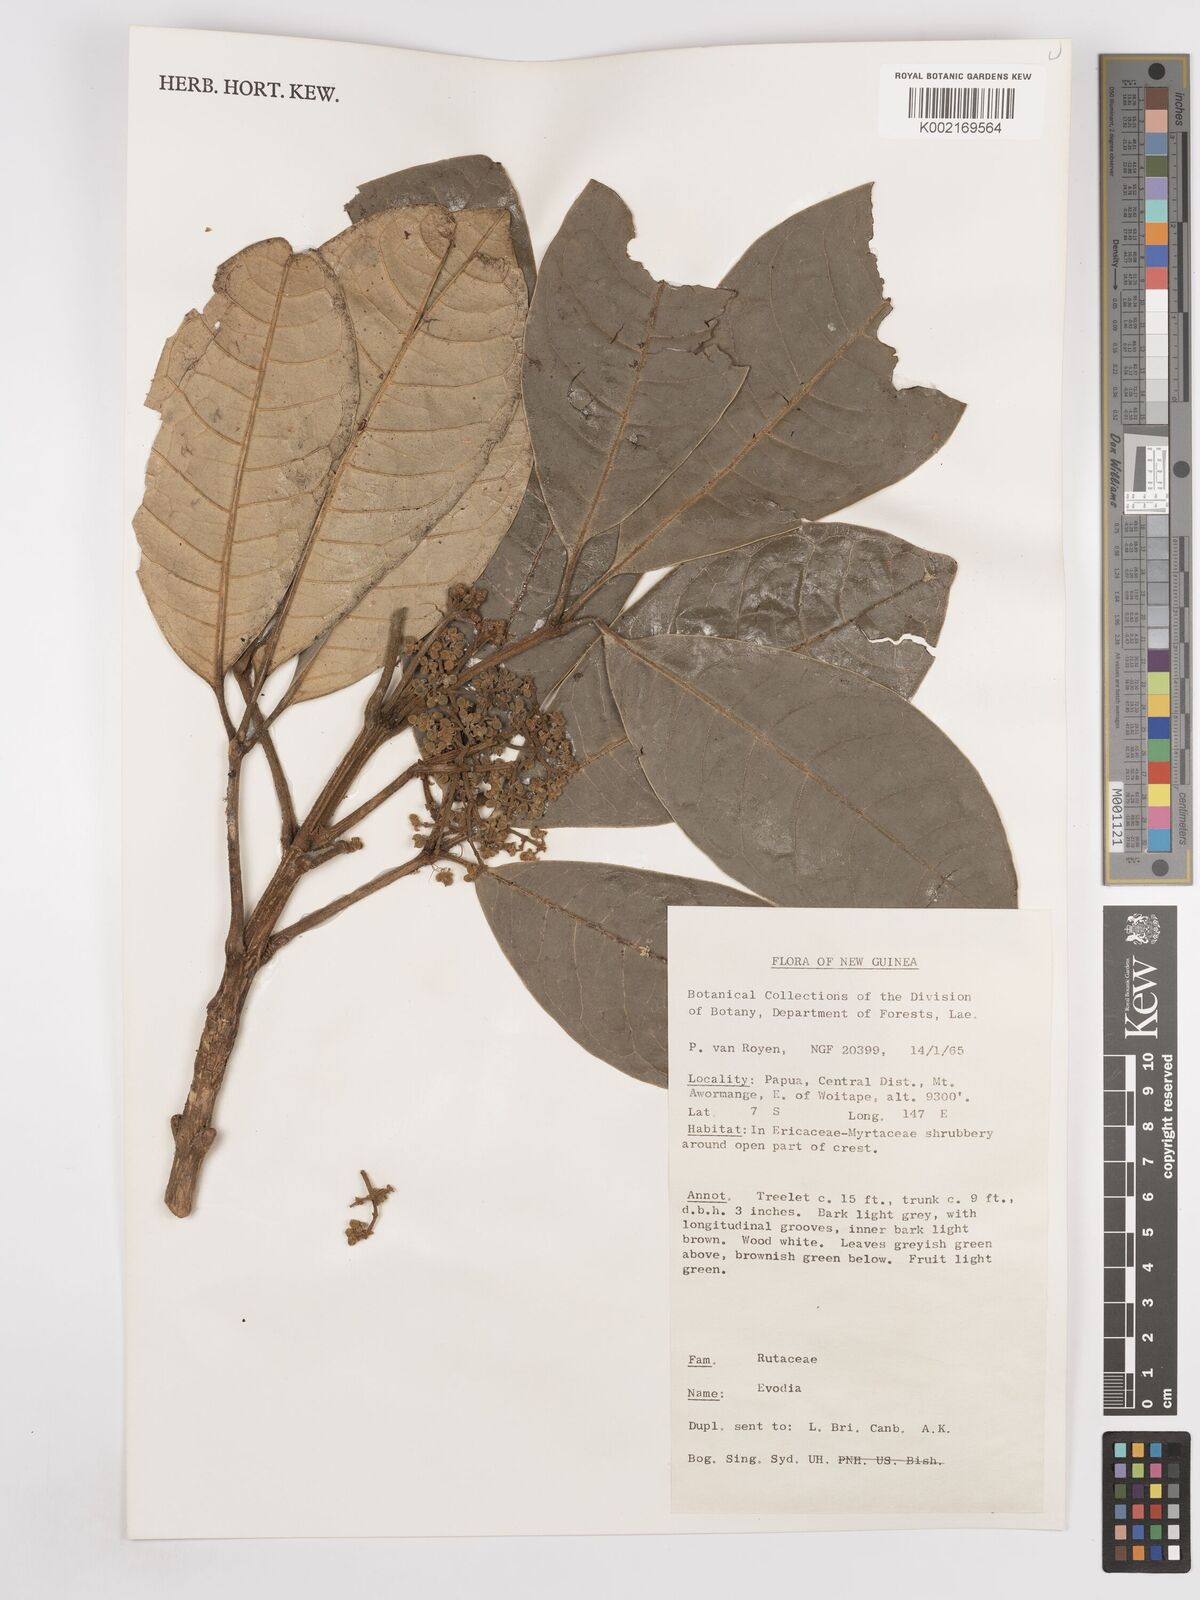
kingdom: Plantae
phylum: Tracheophyta
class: Magnoliopsida
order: Sapindales
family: Rutaceae
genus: Euodia
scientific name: Euodia
